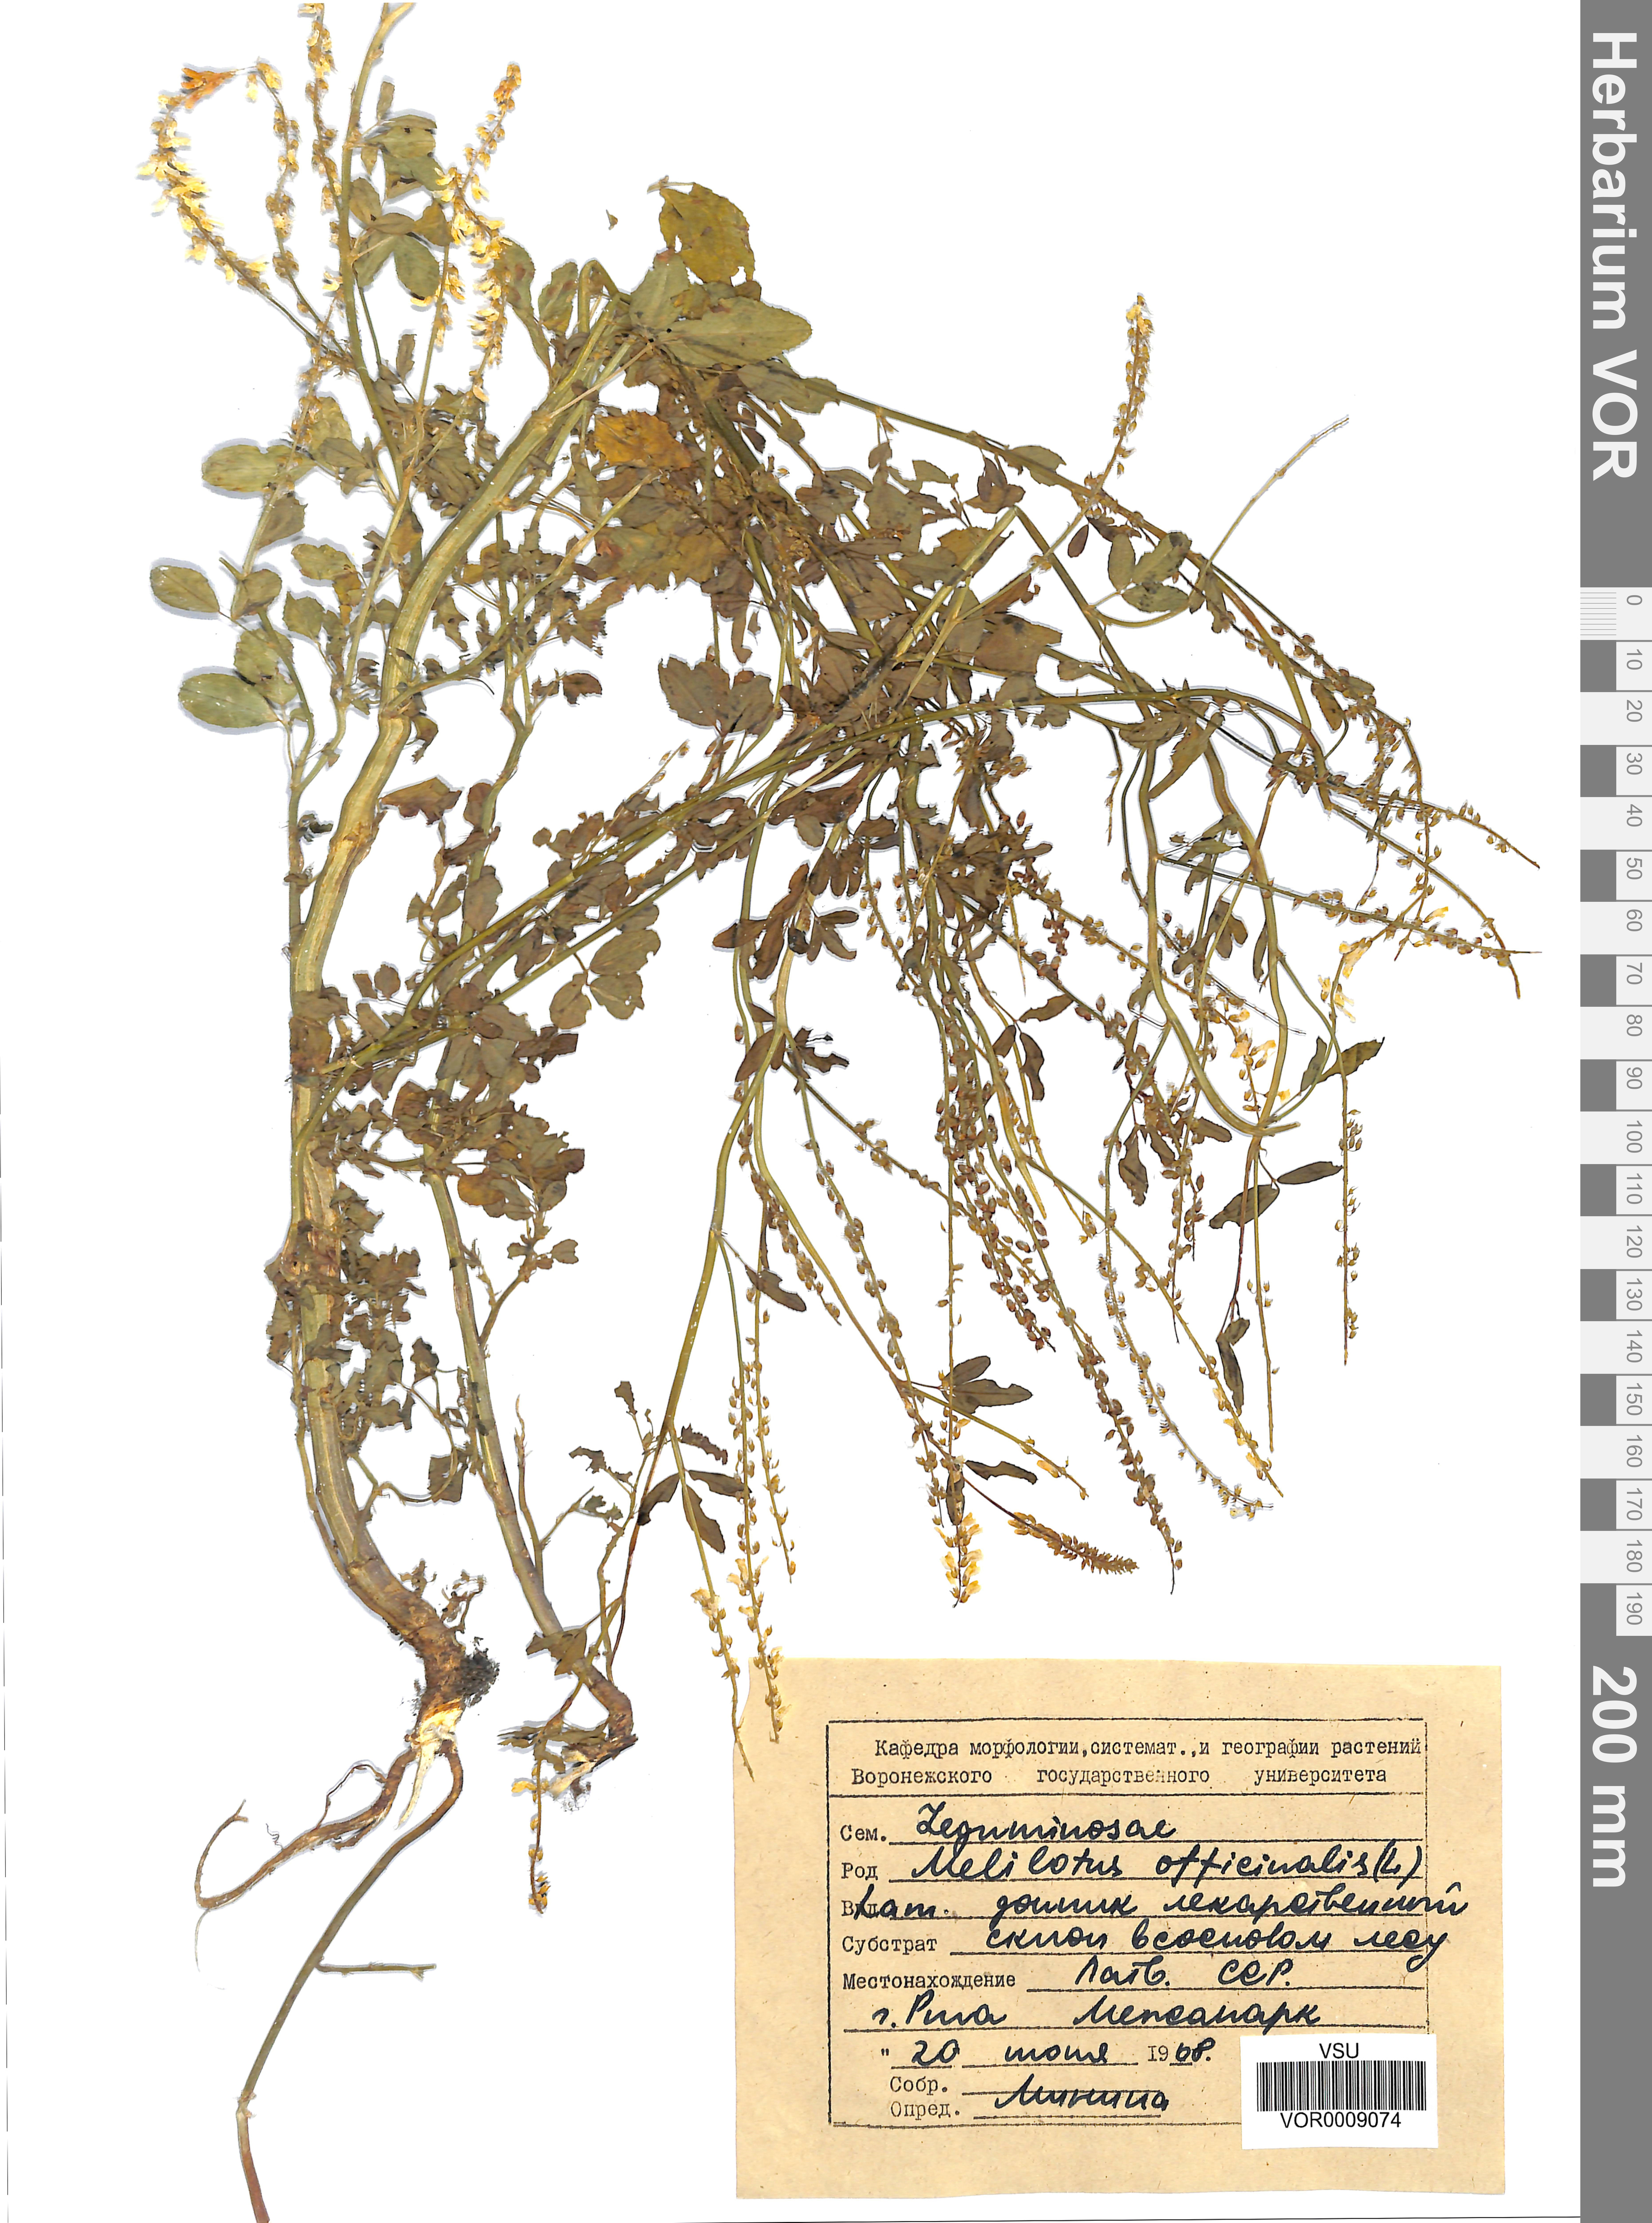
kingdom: Plantae
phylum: Tracheophyta
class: Magnoliopsida
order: Fabales
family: Fabaceae
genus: Melilotus
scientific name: Melilotus officinalis
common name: Sweetclover
